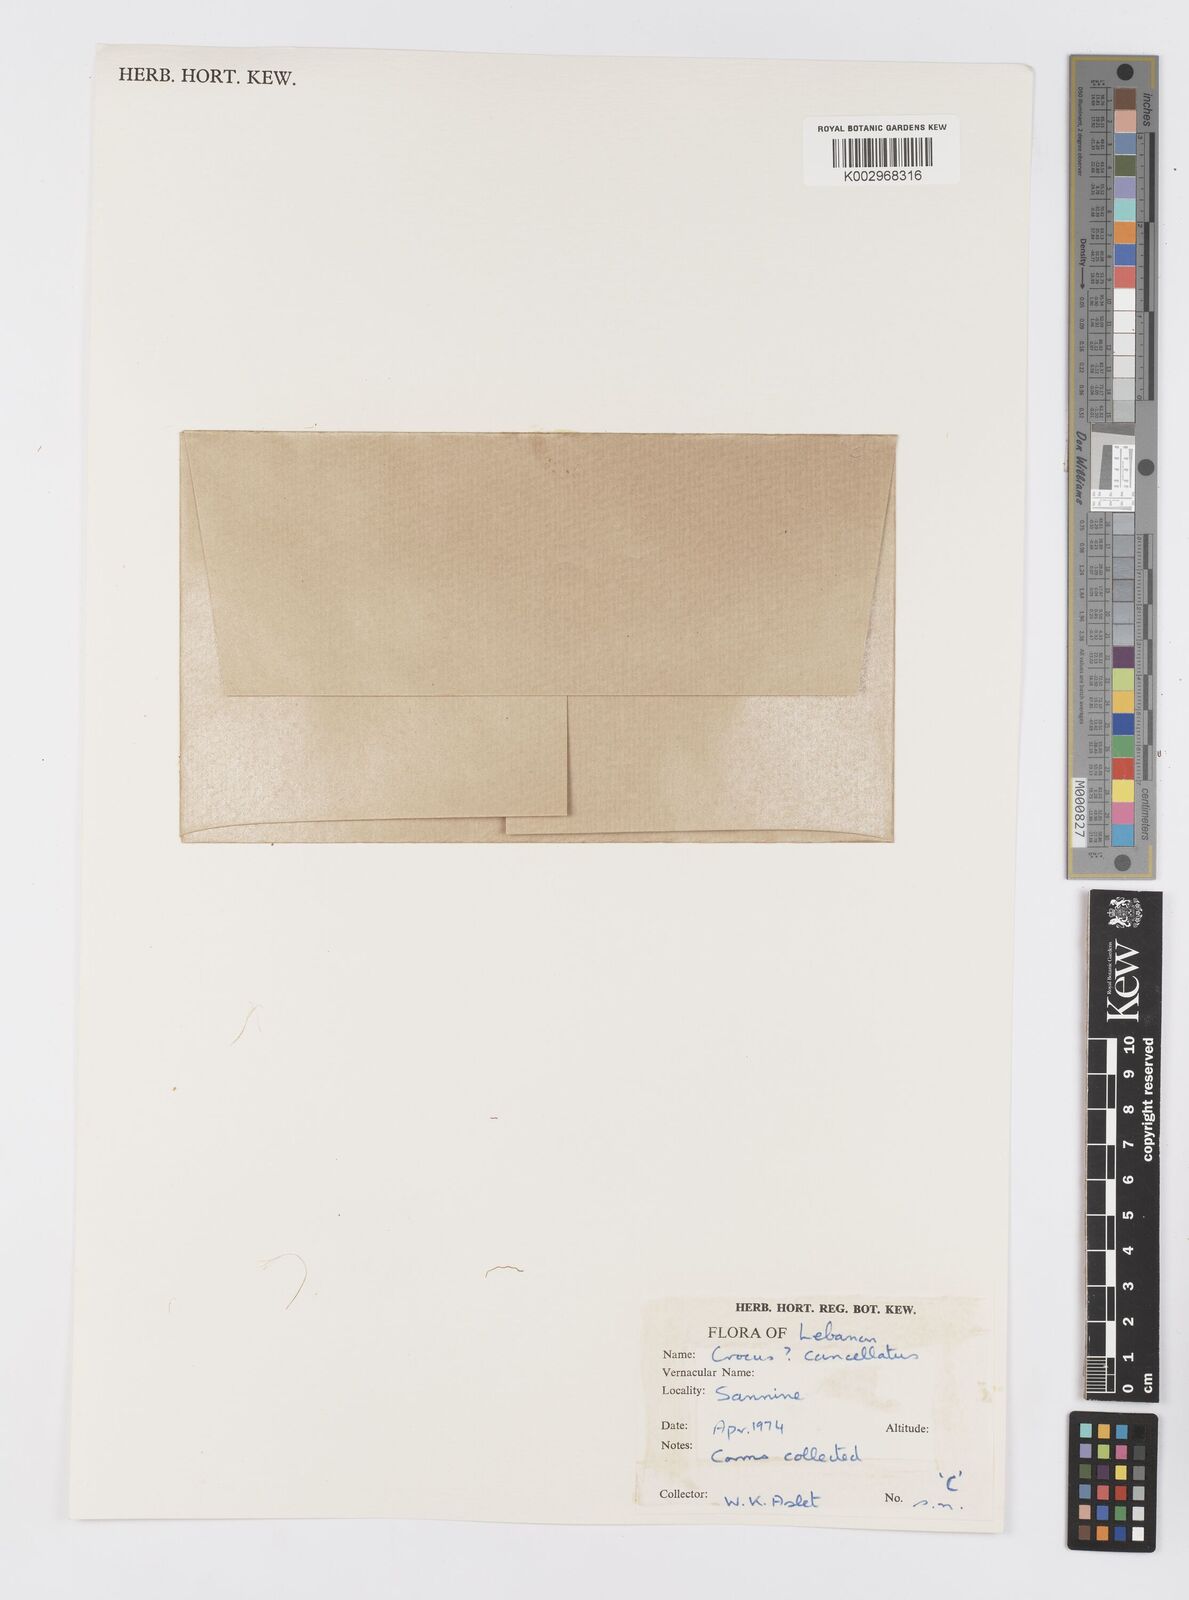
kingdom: Plantae
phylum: Tracheophyta
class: Liliopsida
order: Asparagales
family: Iridaceae
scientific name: Iridaceae
